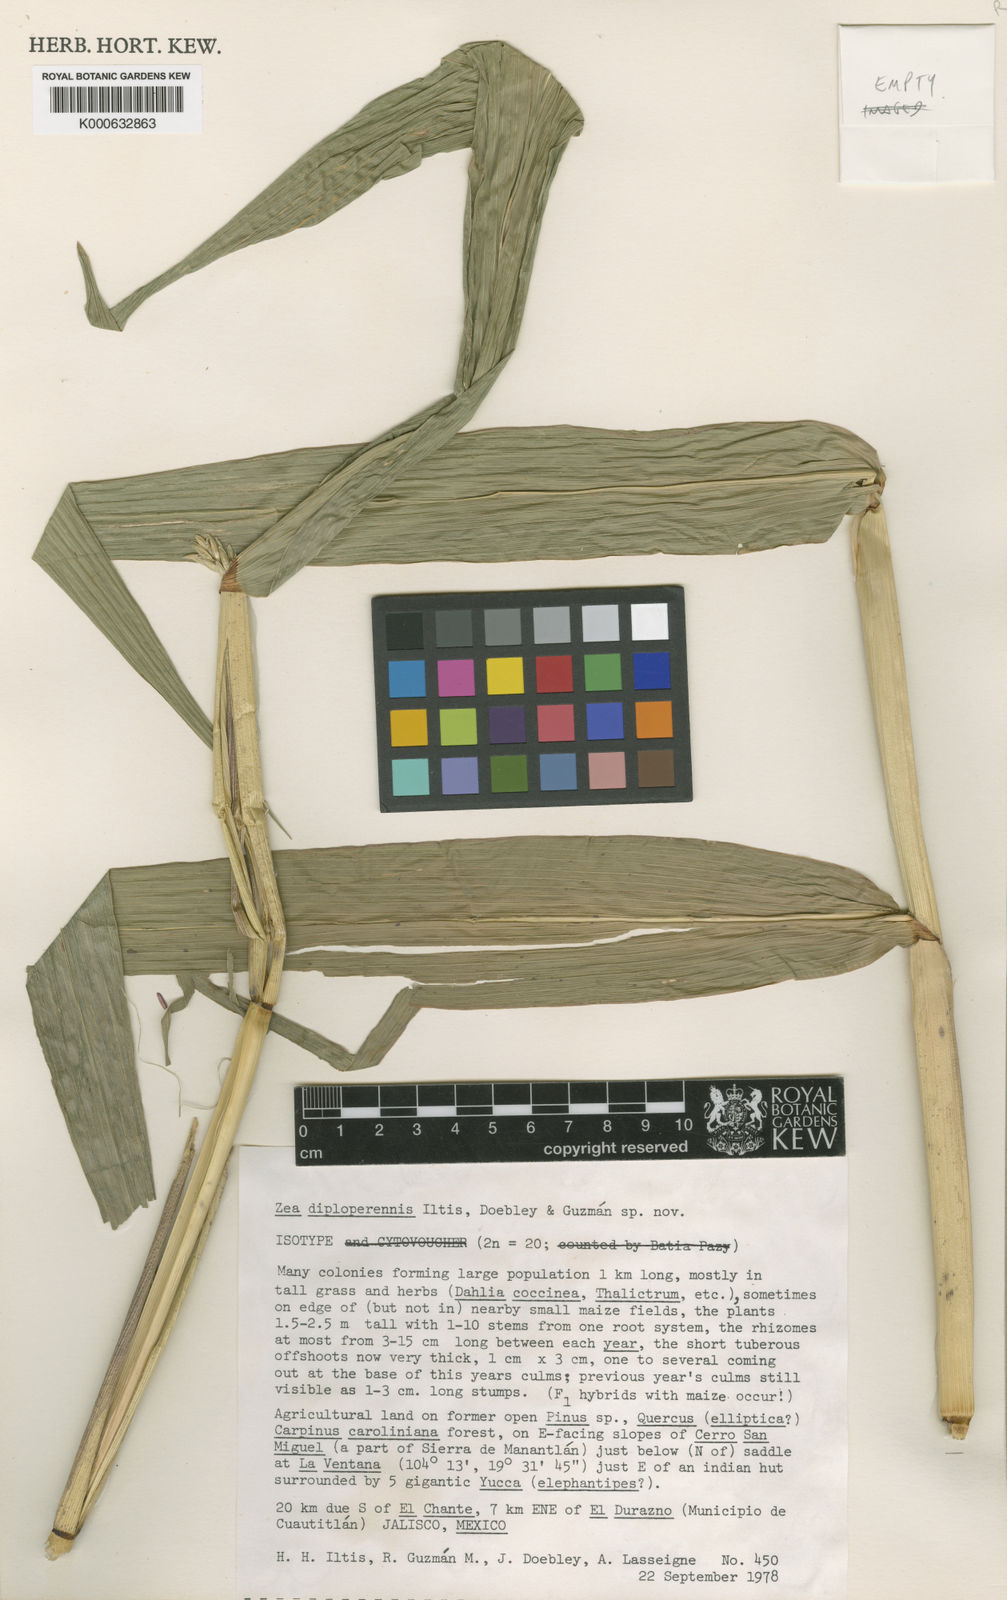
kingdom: Plantae
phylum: Tracheophyta
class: Liliopsida
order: Poales
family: Poaceae
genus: Zea
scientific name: Zea
